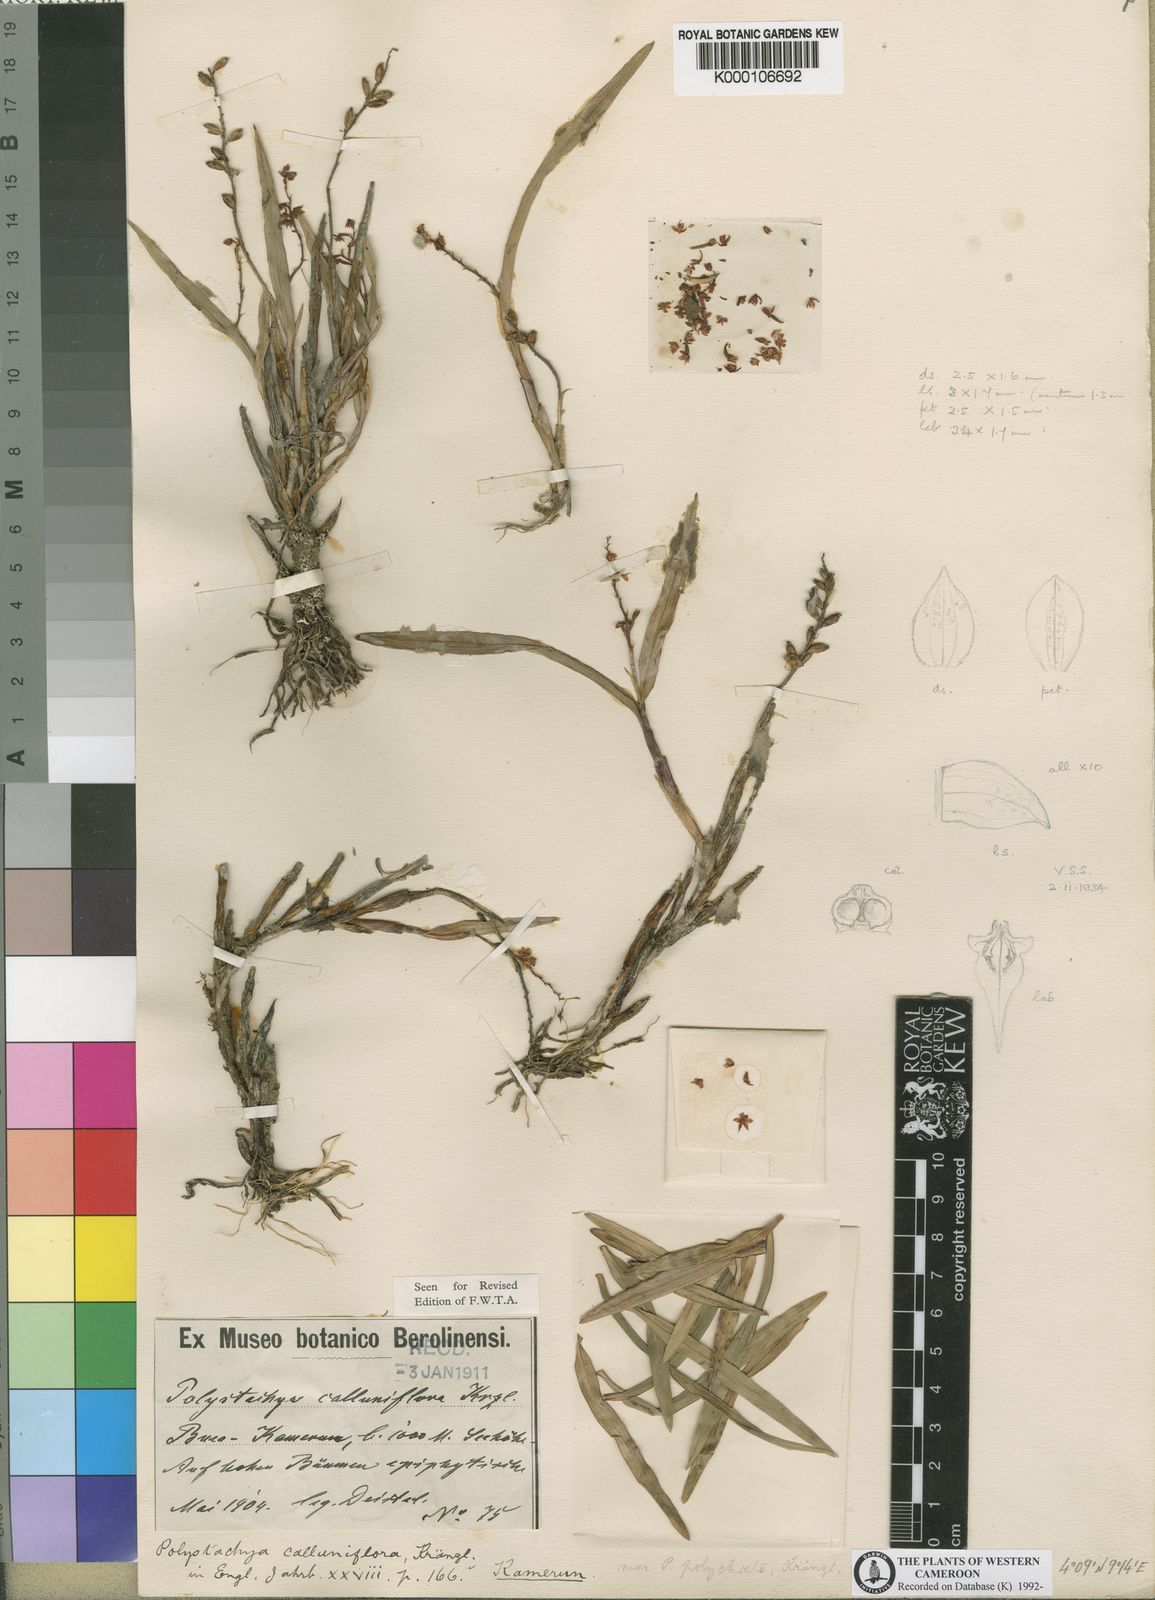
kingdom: Plantae
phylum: Tracheophyta
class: Liliopsida
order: Asparagales
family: Orchidaceae
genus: Polystachya
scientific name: Polystachya calluniflora
